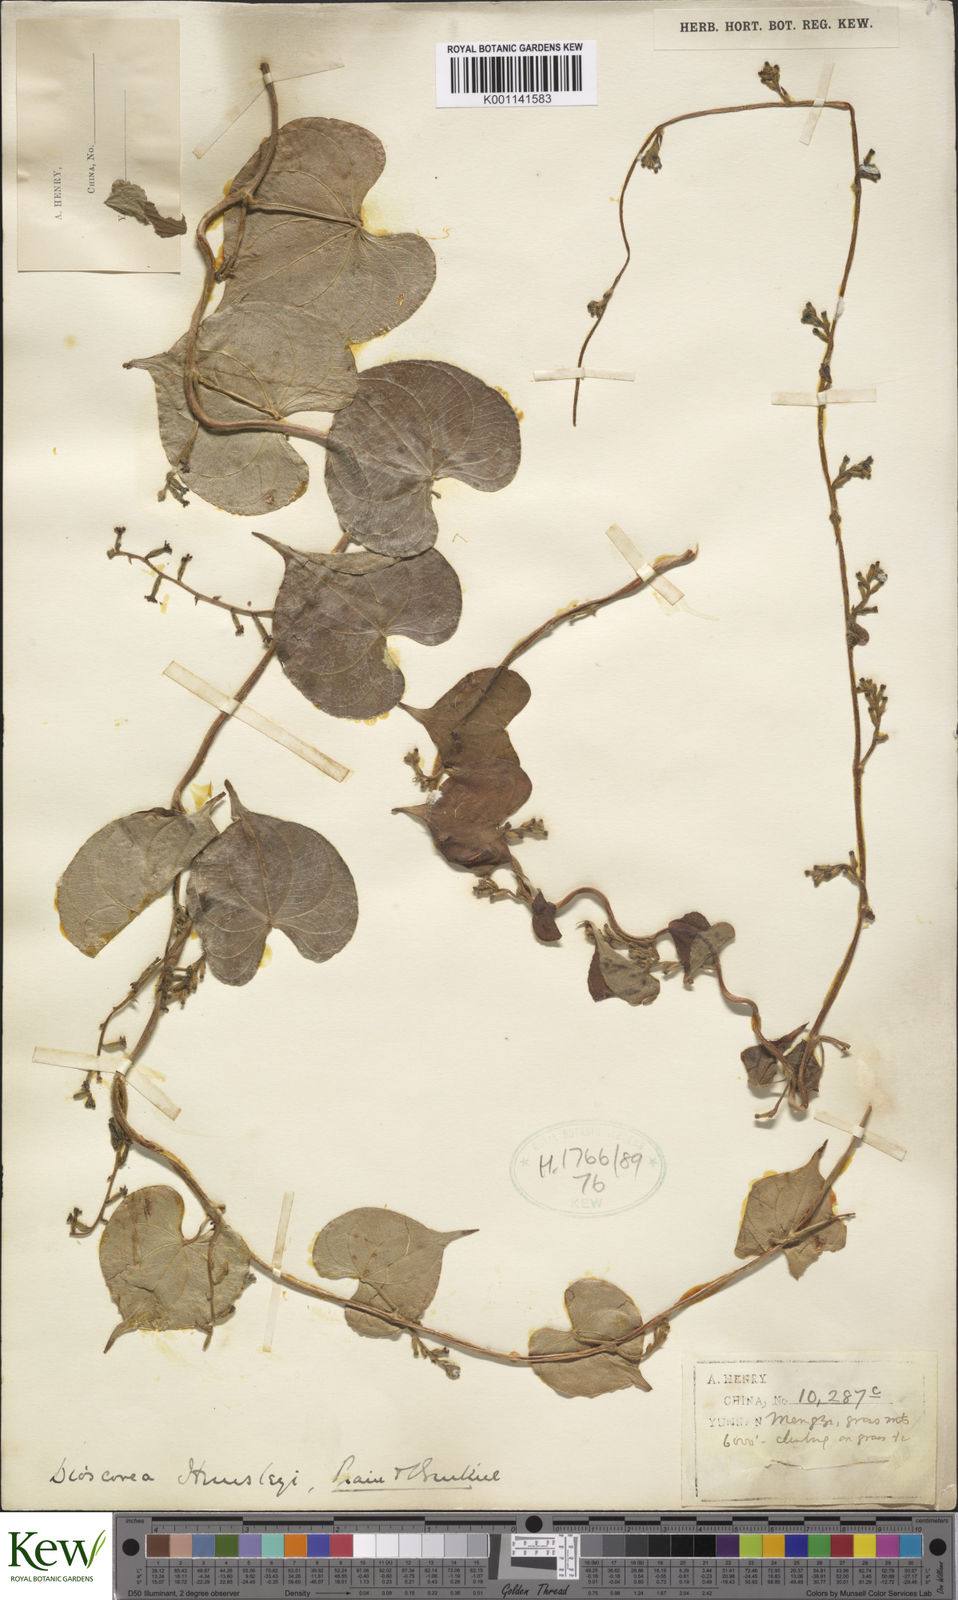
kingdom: Plantae
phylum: Tracheophyta
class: Liliopsida
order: Dioscoreales
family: Dioscoreaceae
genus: Dioscorea
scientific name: Dioscorea hemsleyi
